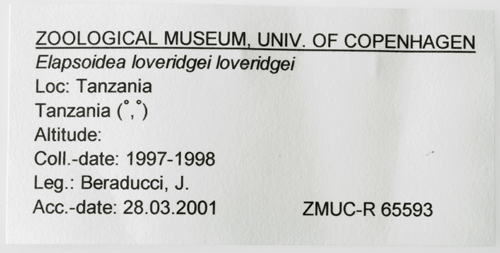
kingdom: Animalia
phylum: Chordata
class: Squamata
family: Elapidae
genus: Elapsoidea
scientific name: Elapsoidea loveridgei
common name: East african garter snake
